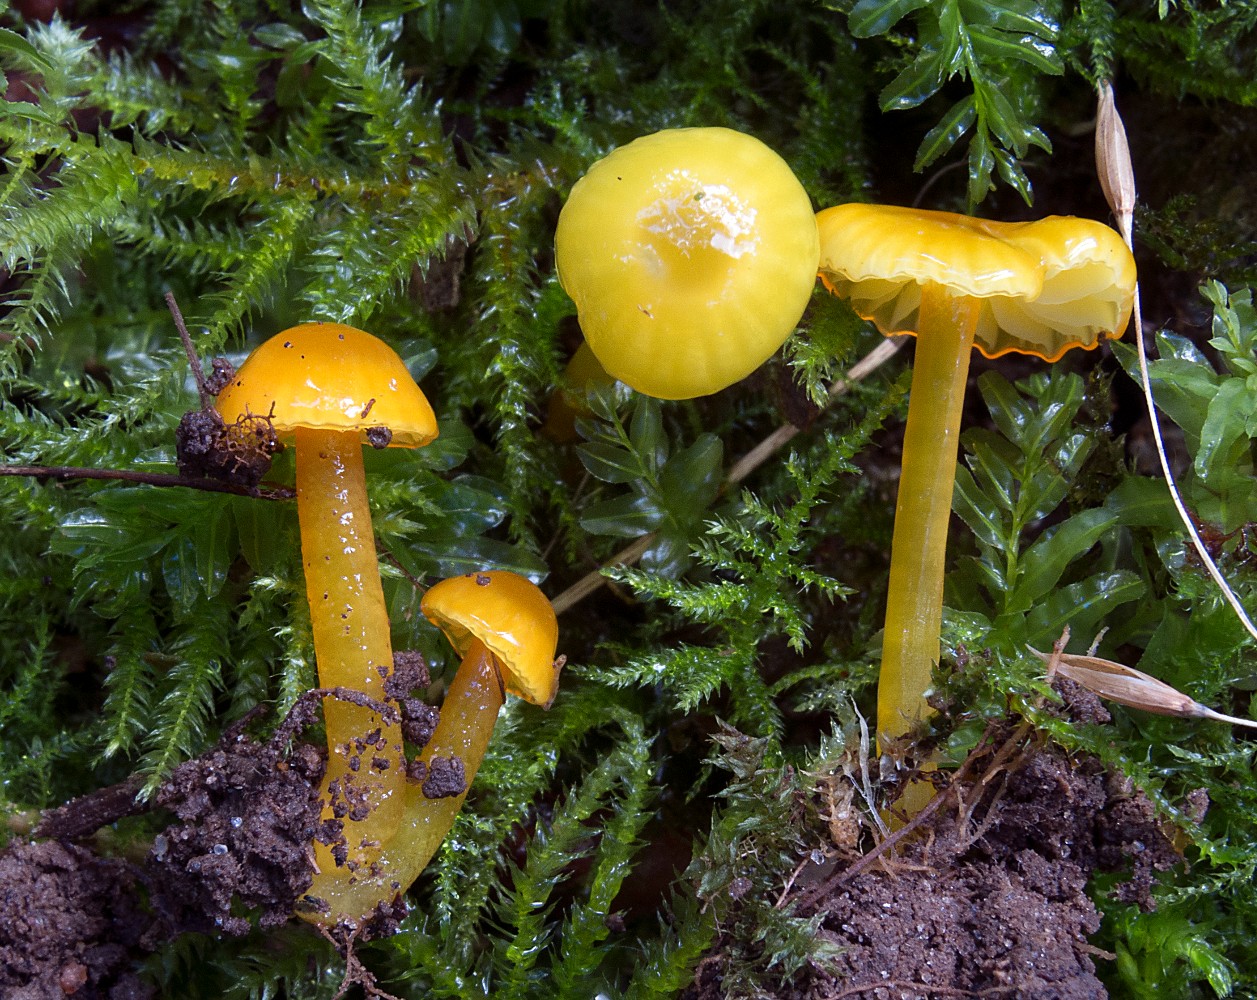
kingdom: Fungi
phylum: Basidiomycota
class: Agaricomycetes
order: Agaricales
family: Hygrophoraceae
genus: Hygrocybe
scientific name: Hygrocybe glutinipes
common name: slimstokket vokshat
